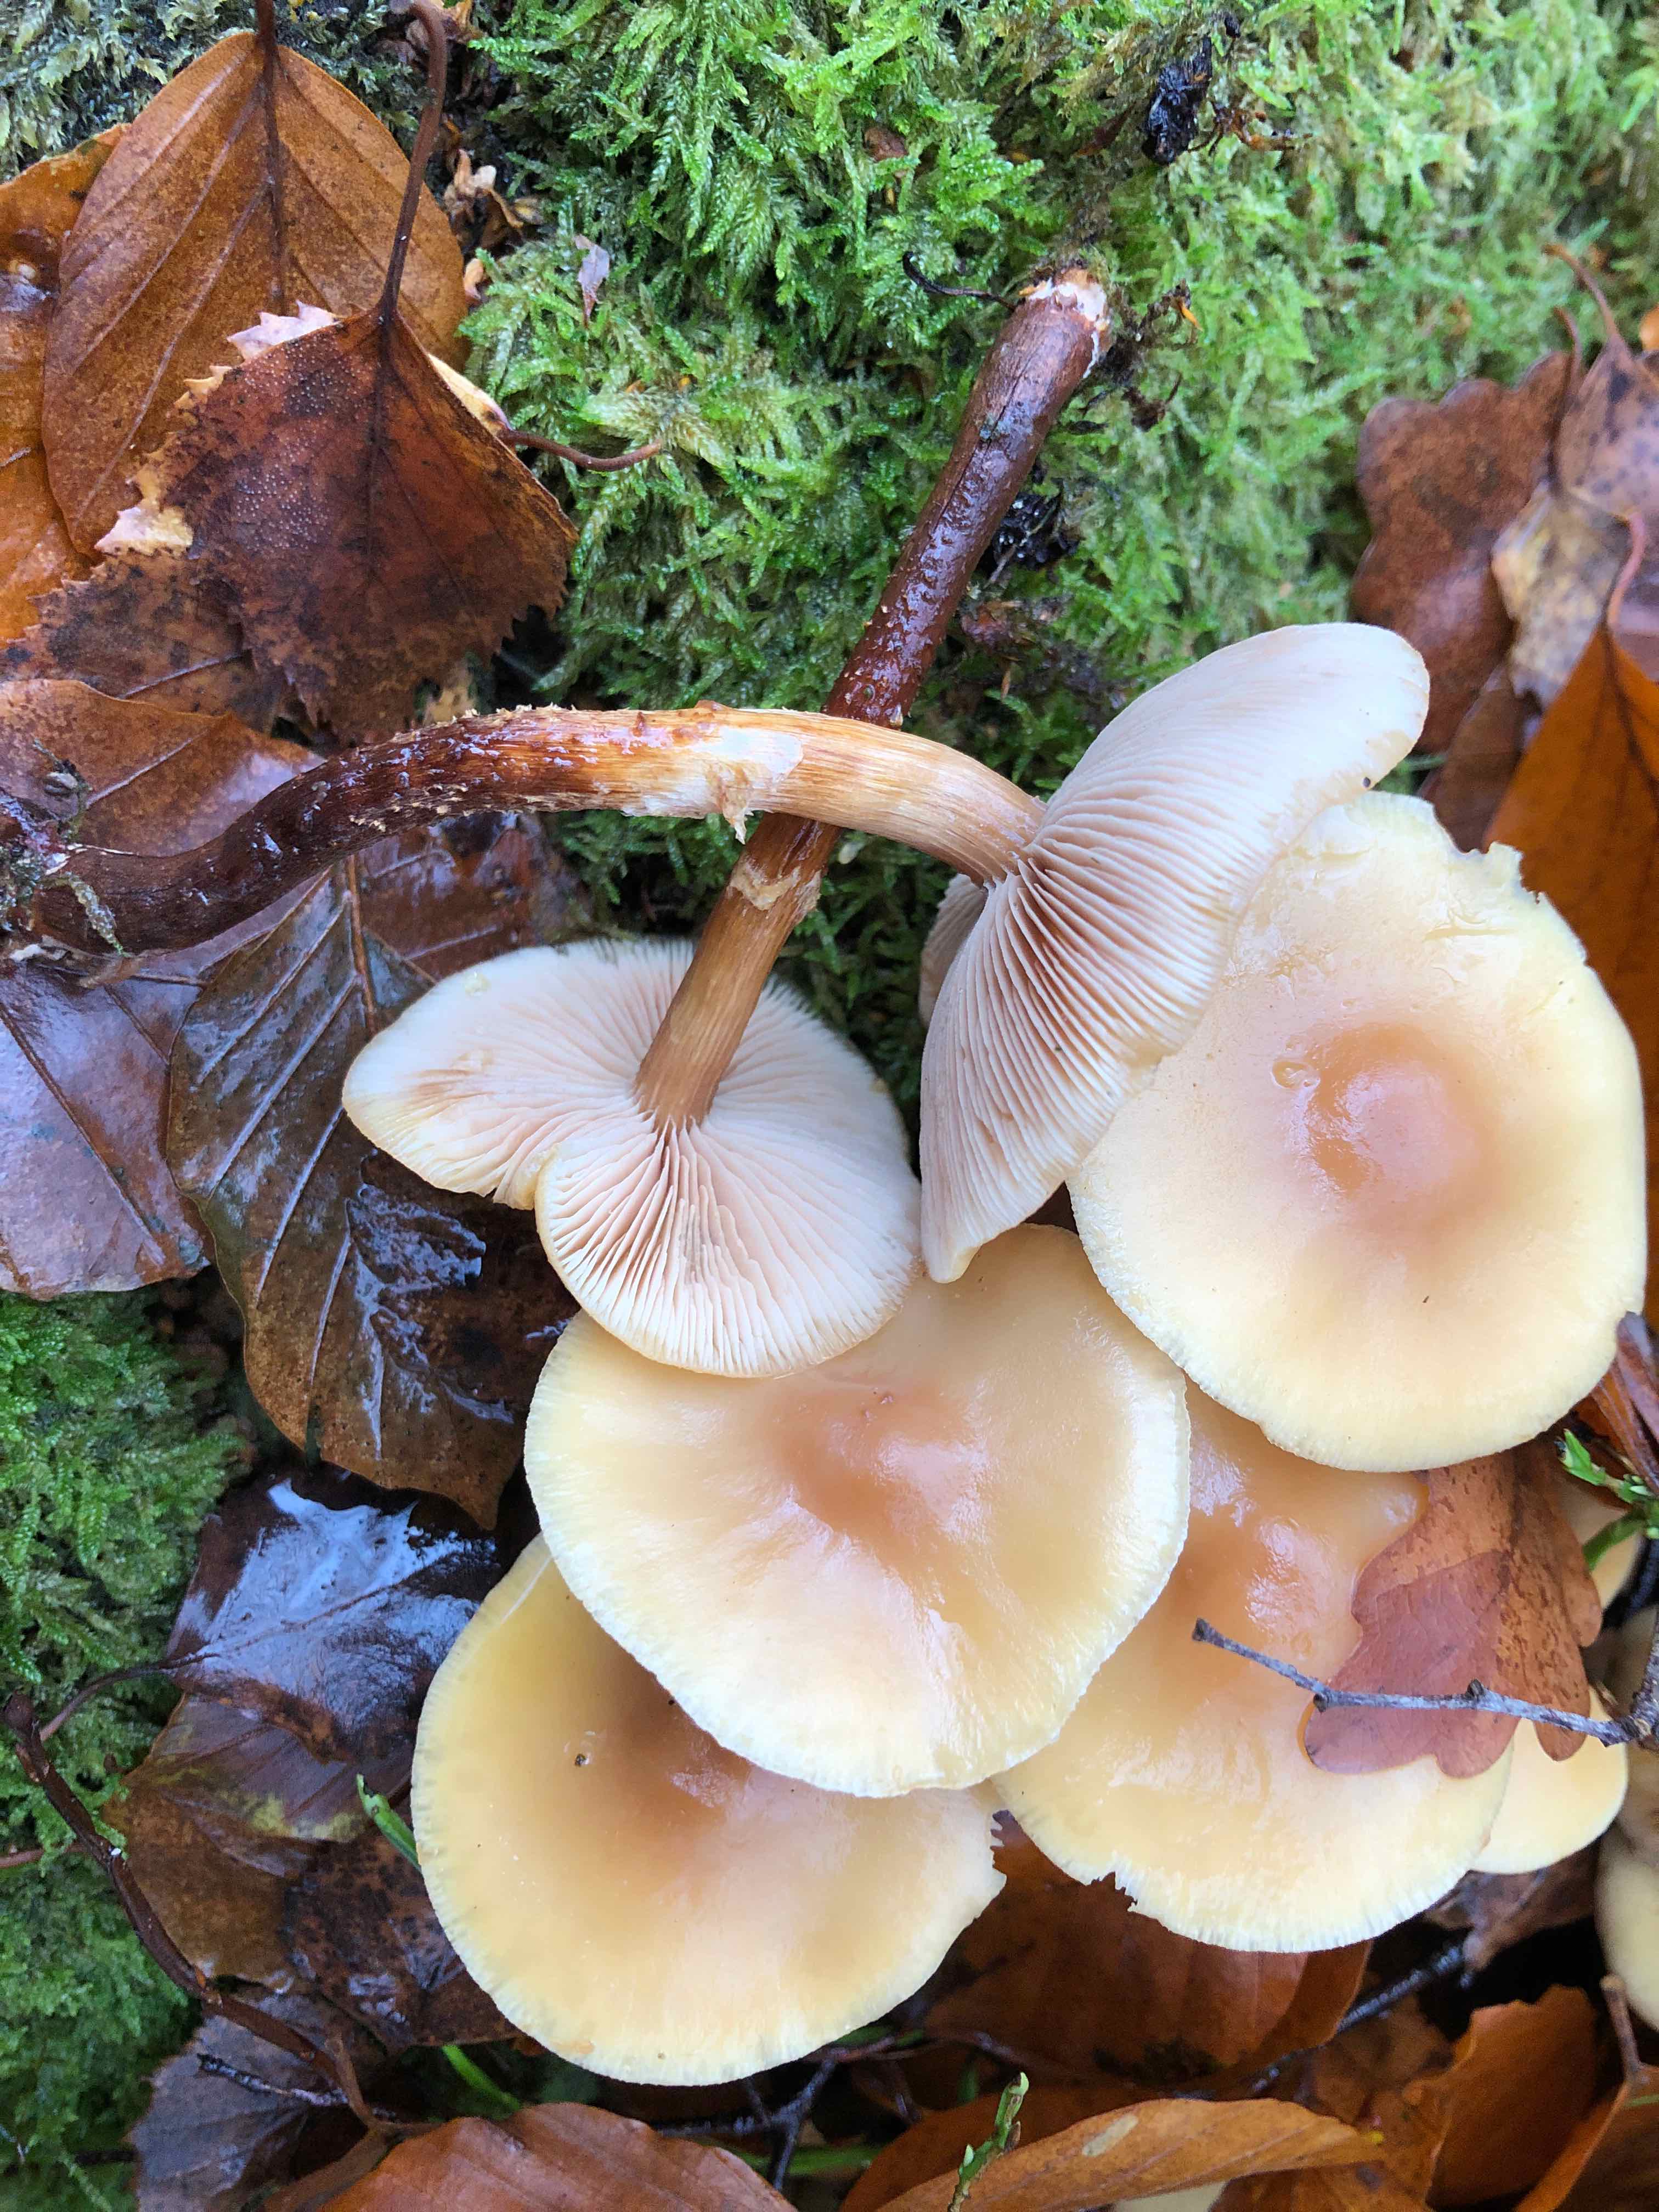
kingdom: Fungi
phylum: Basidiomycota
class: Agaricomycetes
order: Agaricales
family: Strophariaceae
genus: Kuehneromyces
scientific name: Kuehneromyces mutabilis
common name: foranderlig skælhat
